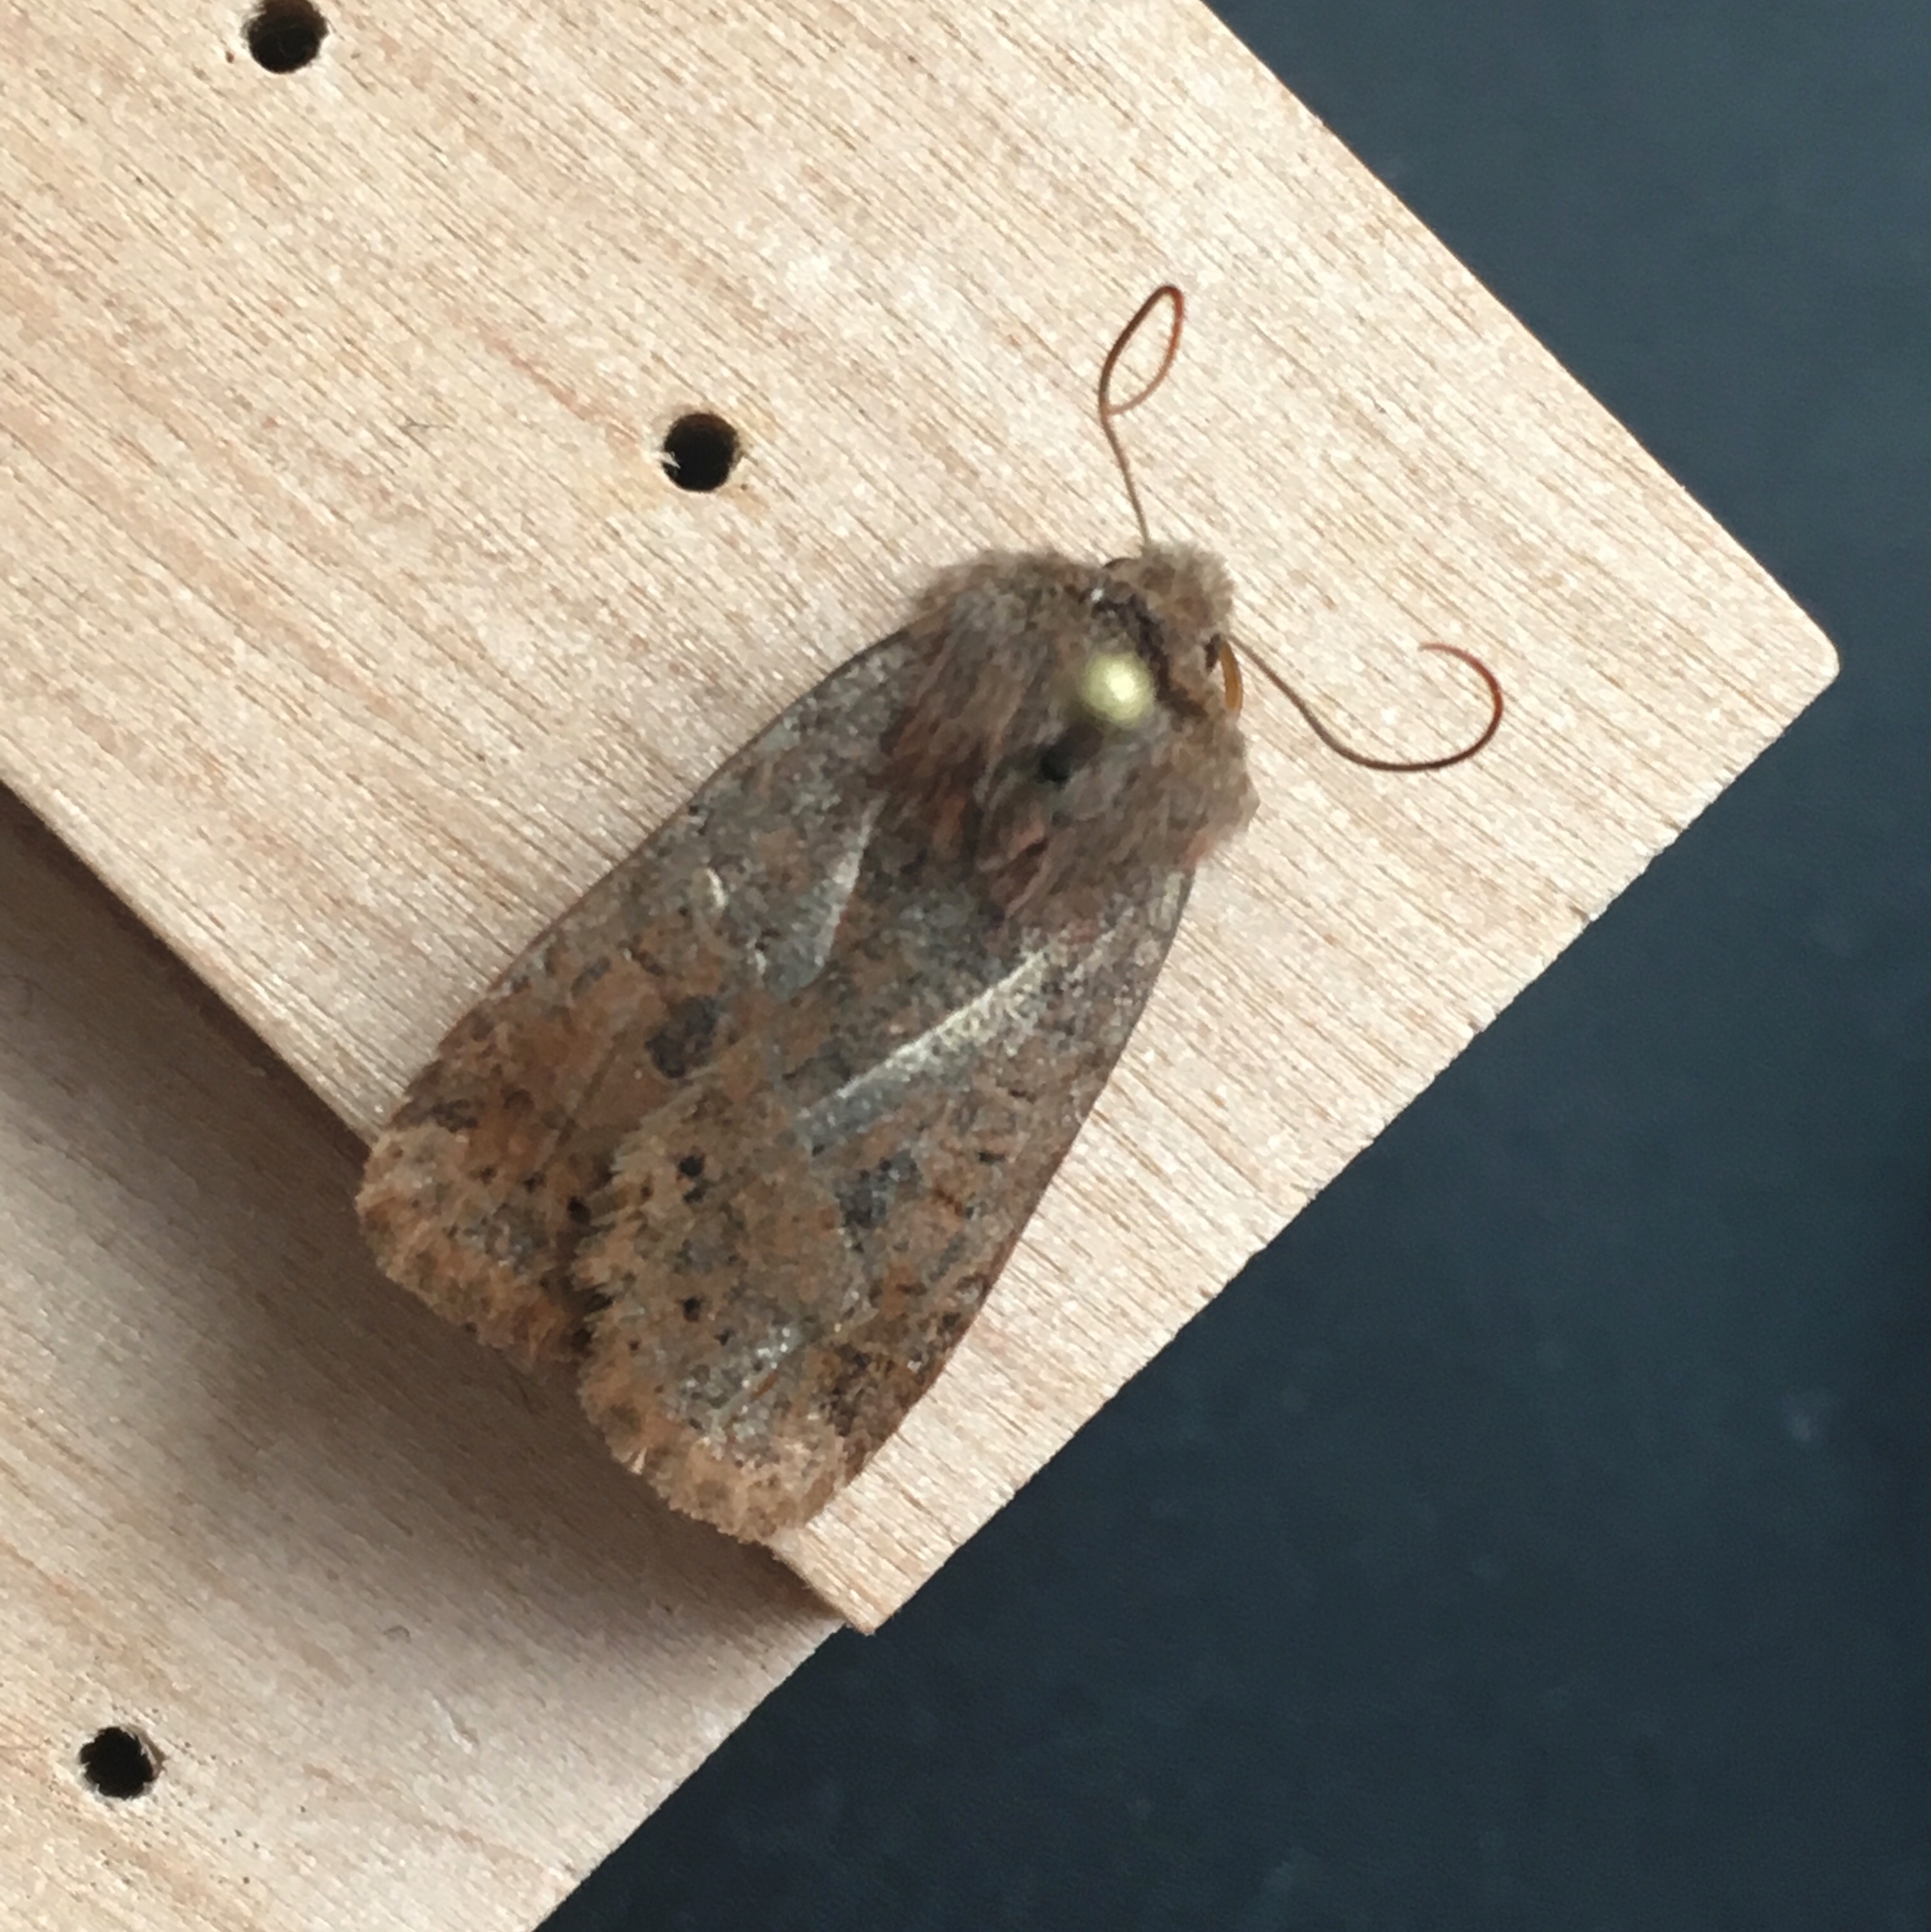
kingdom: Animalia
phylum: Arthropoda
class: Insecta
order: Lepidoptera
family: Noctuidae
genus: Conistra
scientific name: Conistra vaccinii
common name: Chestnut
